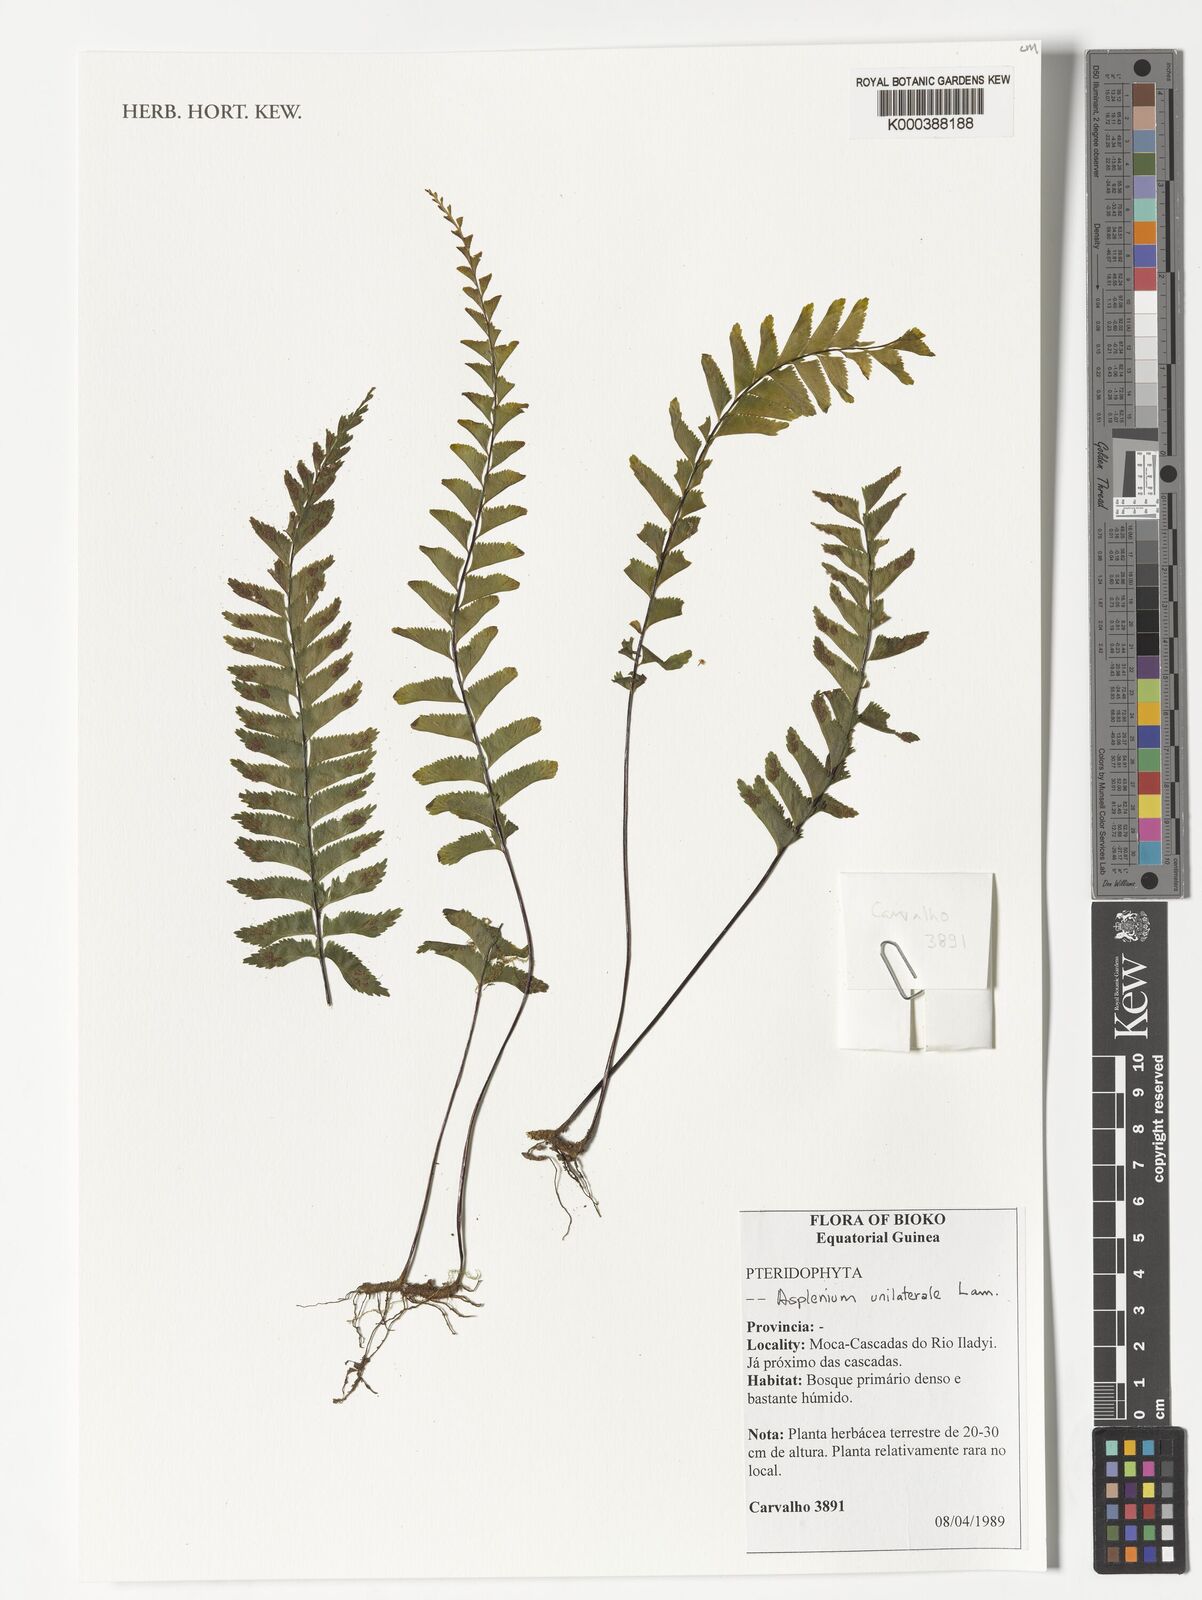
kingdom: Plantae
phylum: Tracheophyta
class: Polypodiopsida
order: Polypodiales
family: Aspleniaceae
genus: Hymenasplenium
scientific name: Hymenasplenium unilaterale
